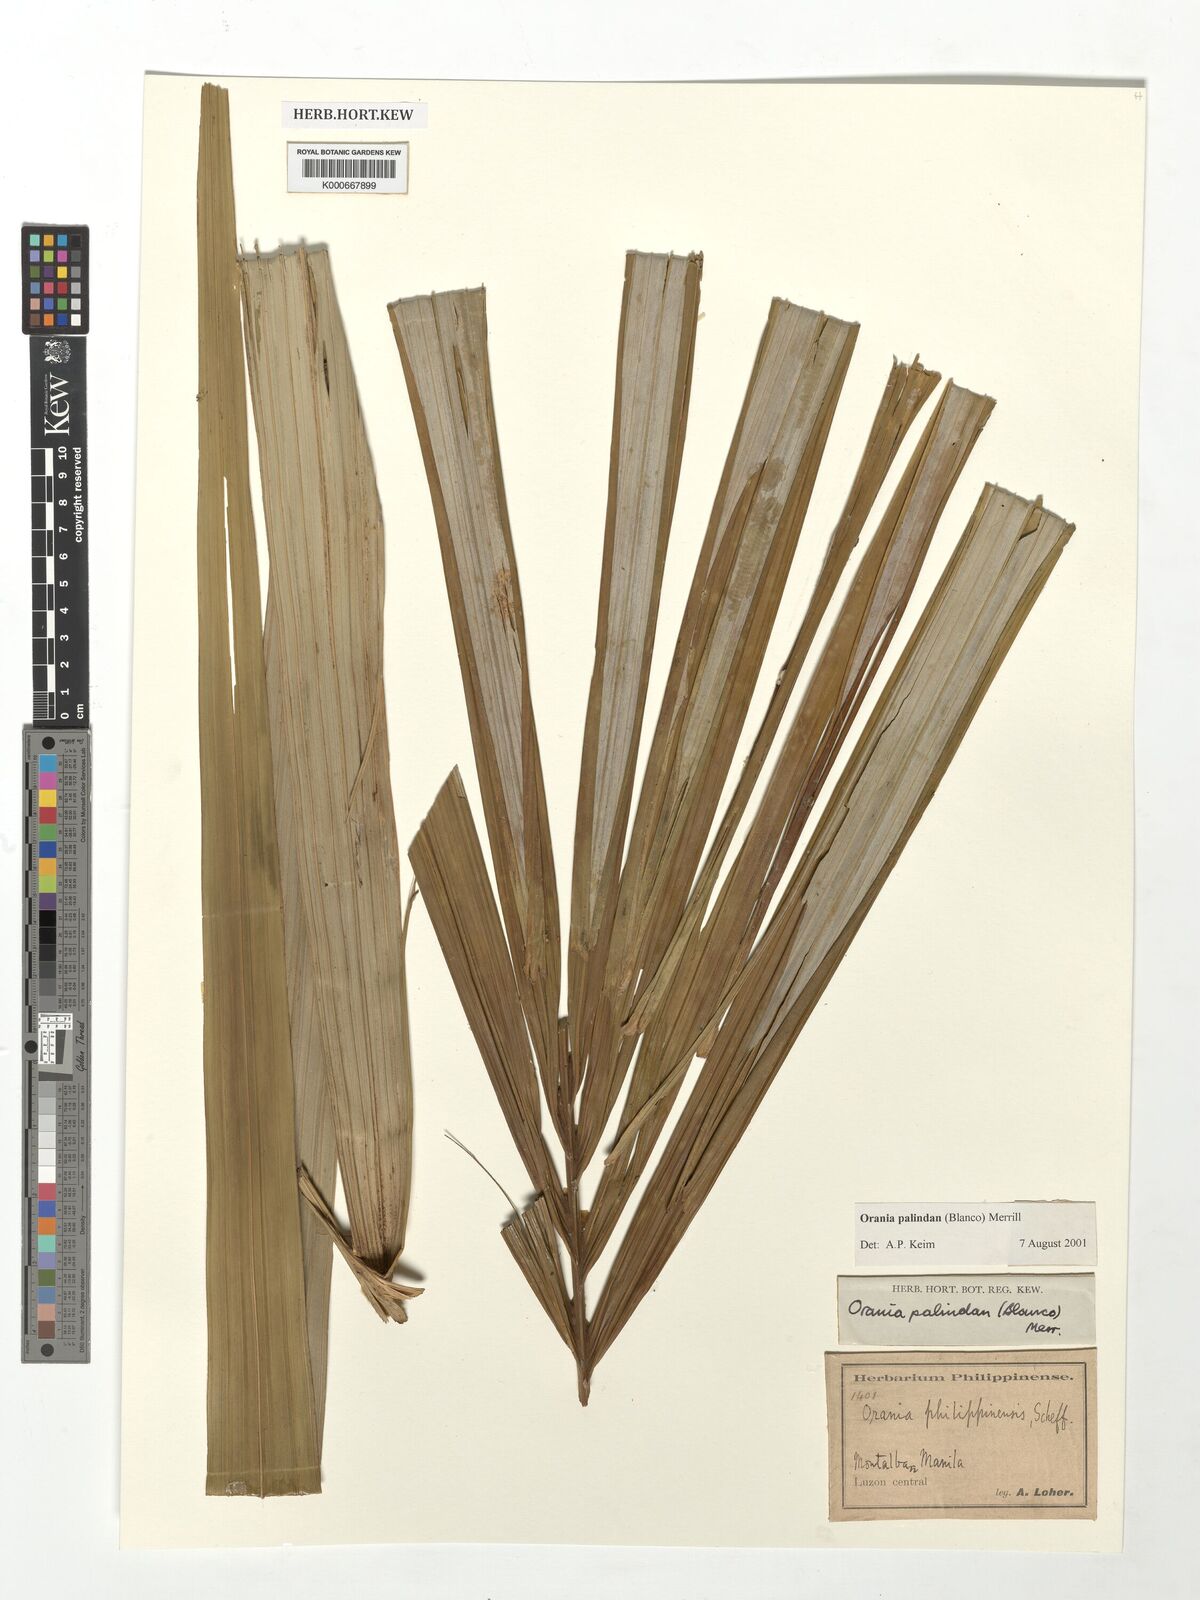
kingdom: Plantae
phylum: Tracheophyta
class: Liliopsida
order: Arecales
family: Arecaceae
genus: Orania
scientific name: Orania palindan
